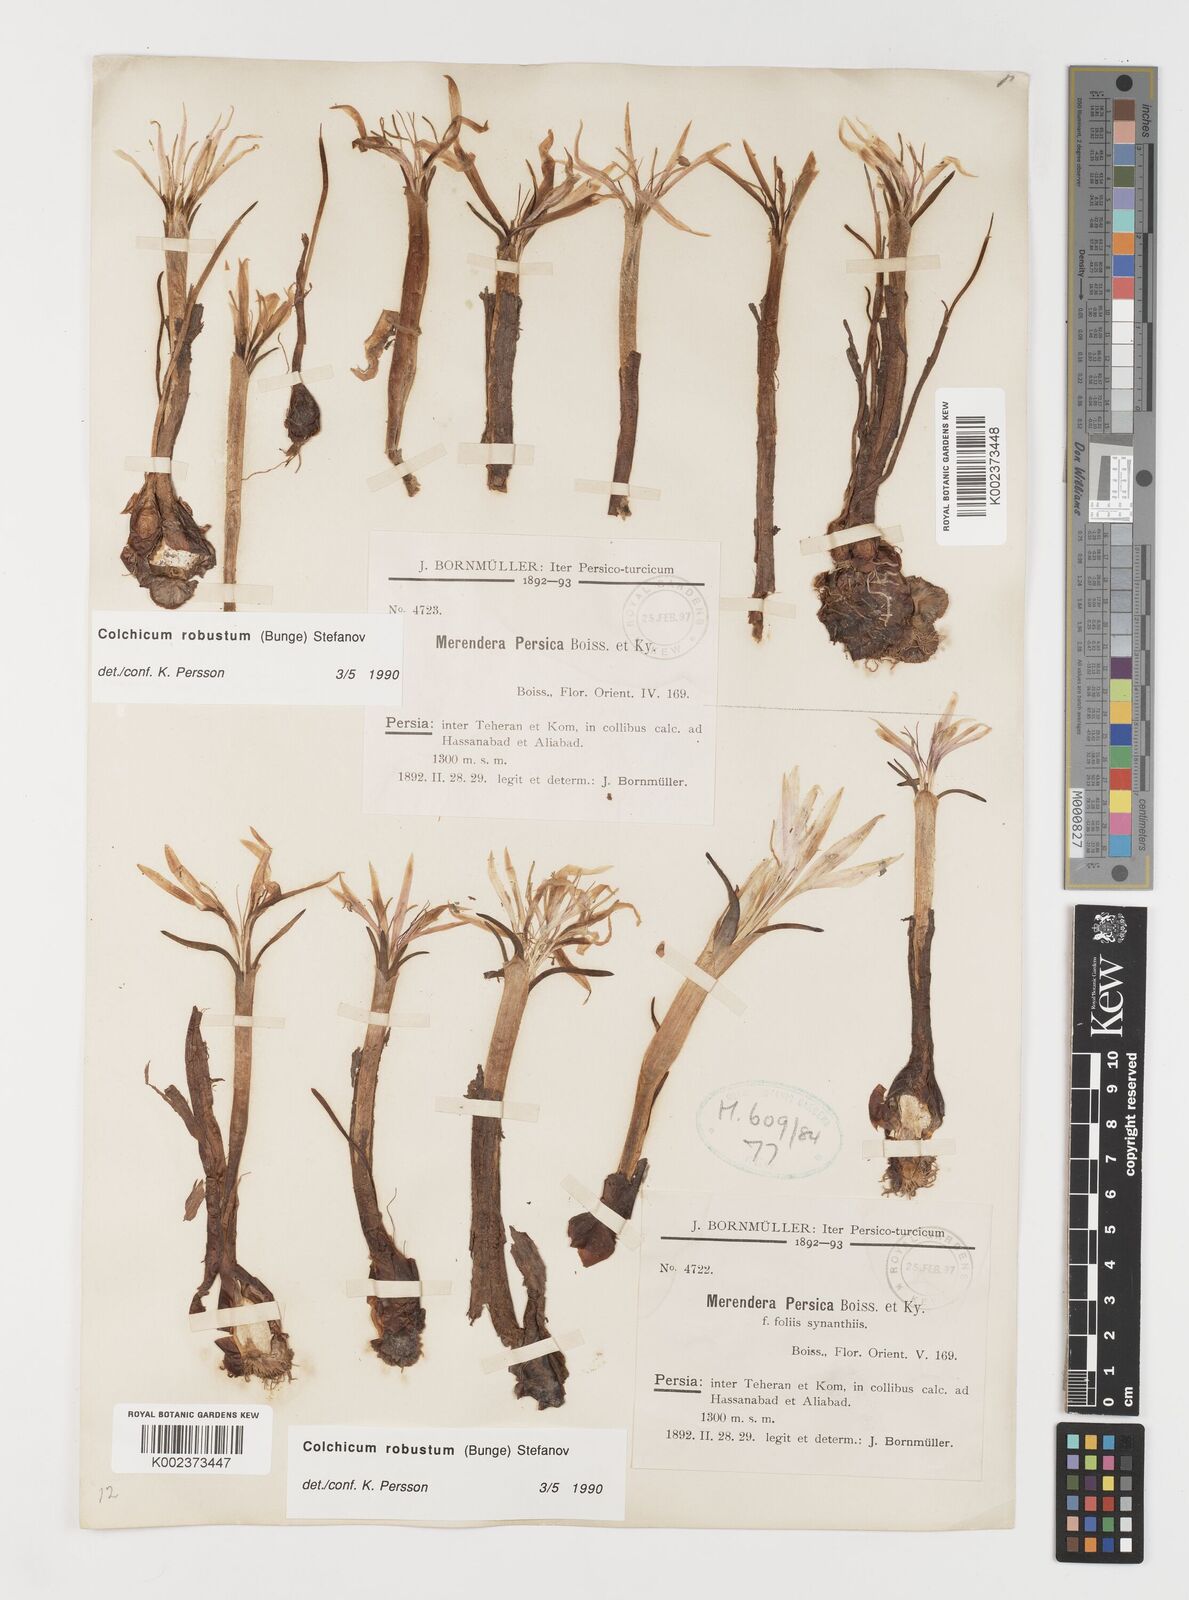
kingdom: Plantae
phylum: Tracheophyta
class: Liliopsida
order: Liliales
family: Colchicaceae
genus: Colchicum
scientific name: Colchicum robustum
